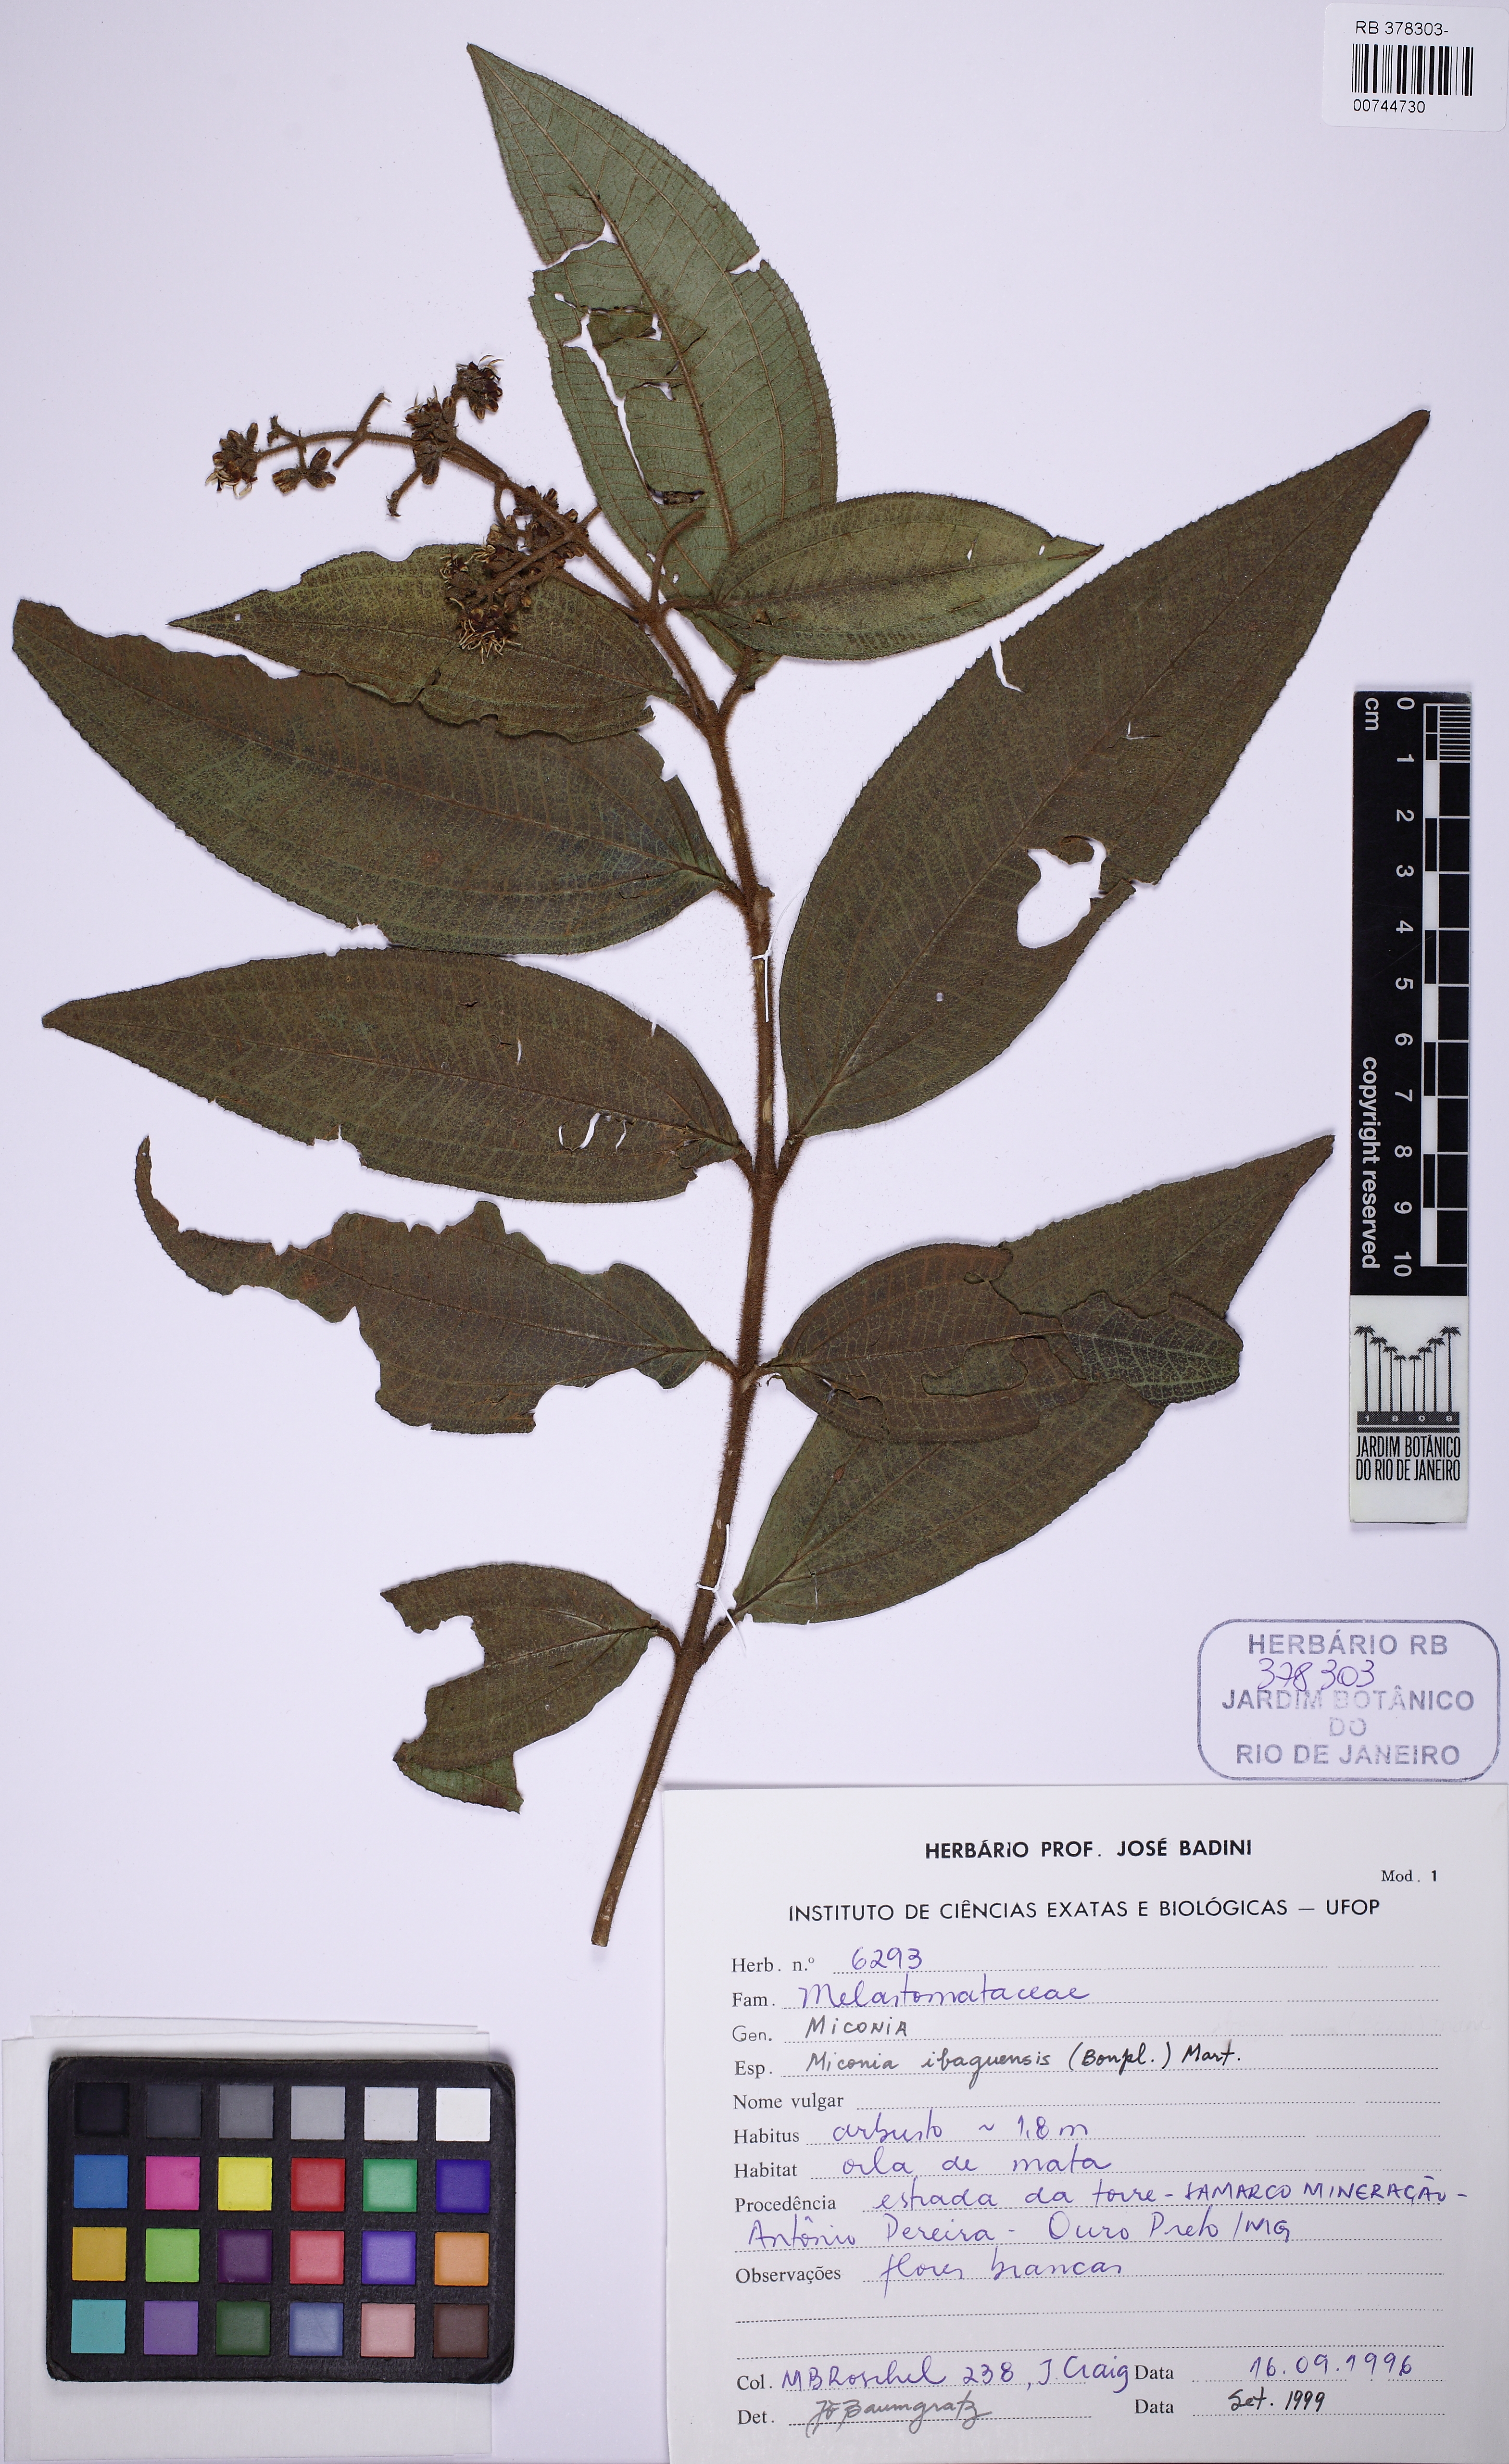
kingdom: Plantae
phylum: Tracheophyta
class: Magnoliopsida
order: Myrtales
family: Melastomataceae
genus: Miconia
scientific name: Miconia ibaguensis
